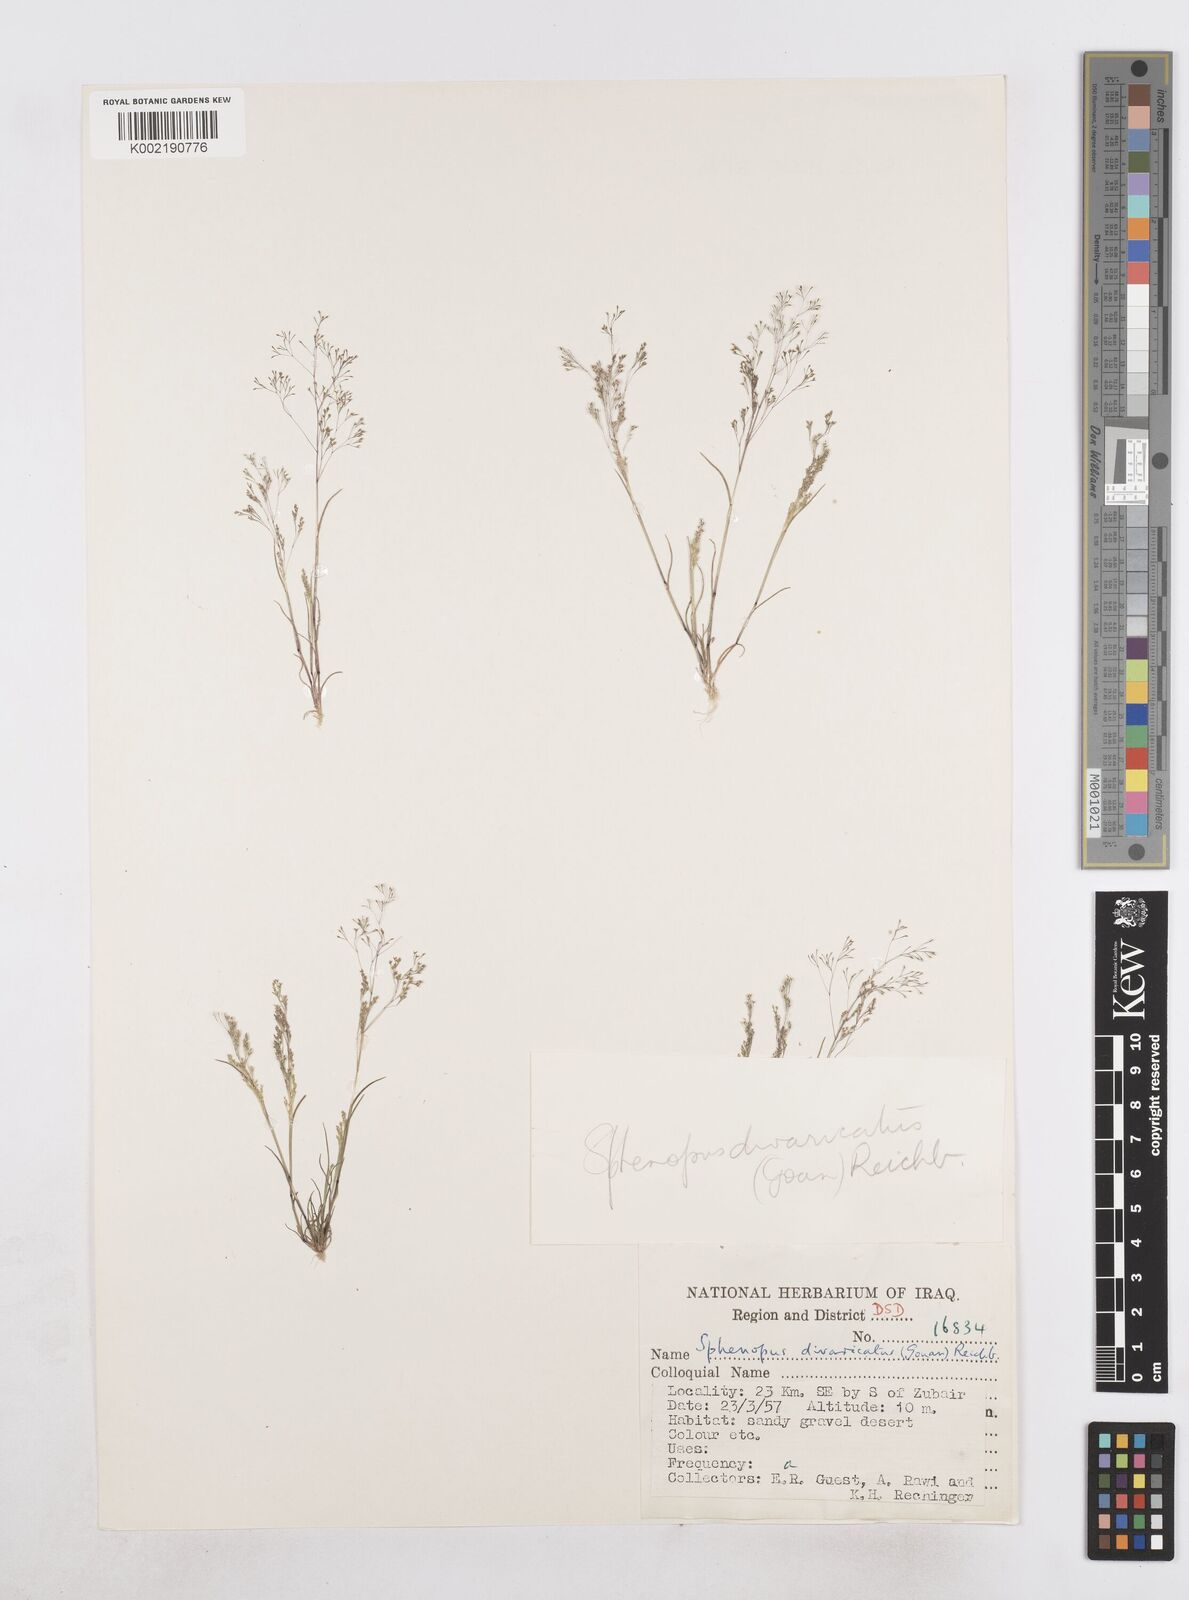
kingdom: Plantae
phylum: Tracheophyta
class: Liliopsida
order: Poales
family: Poaceae
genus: Sphenopus
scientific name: Sphenopus divaricatus
